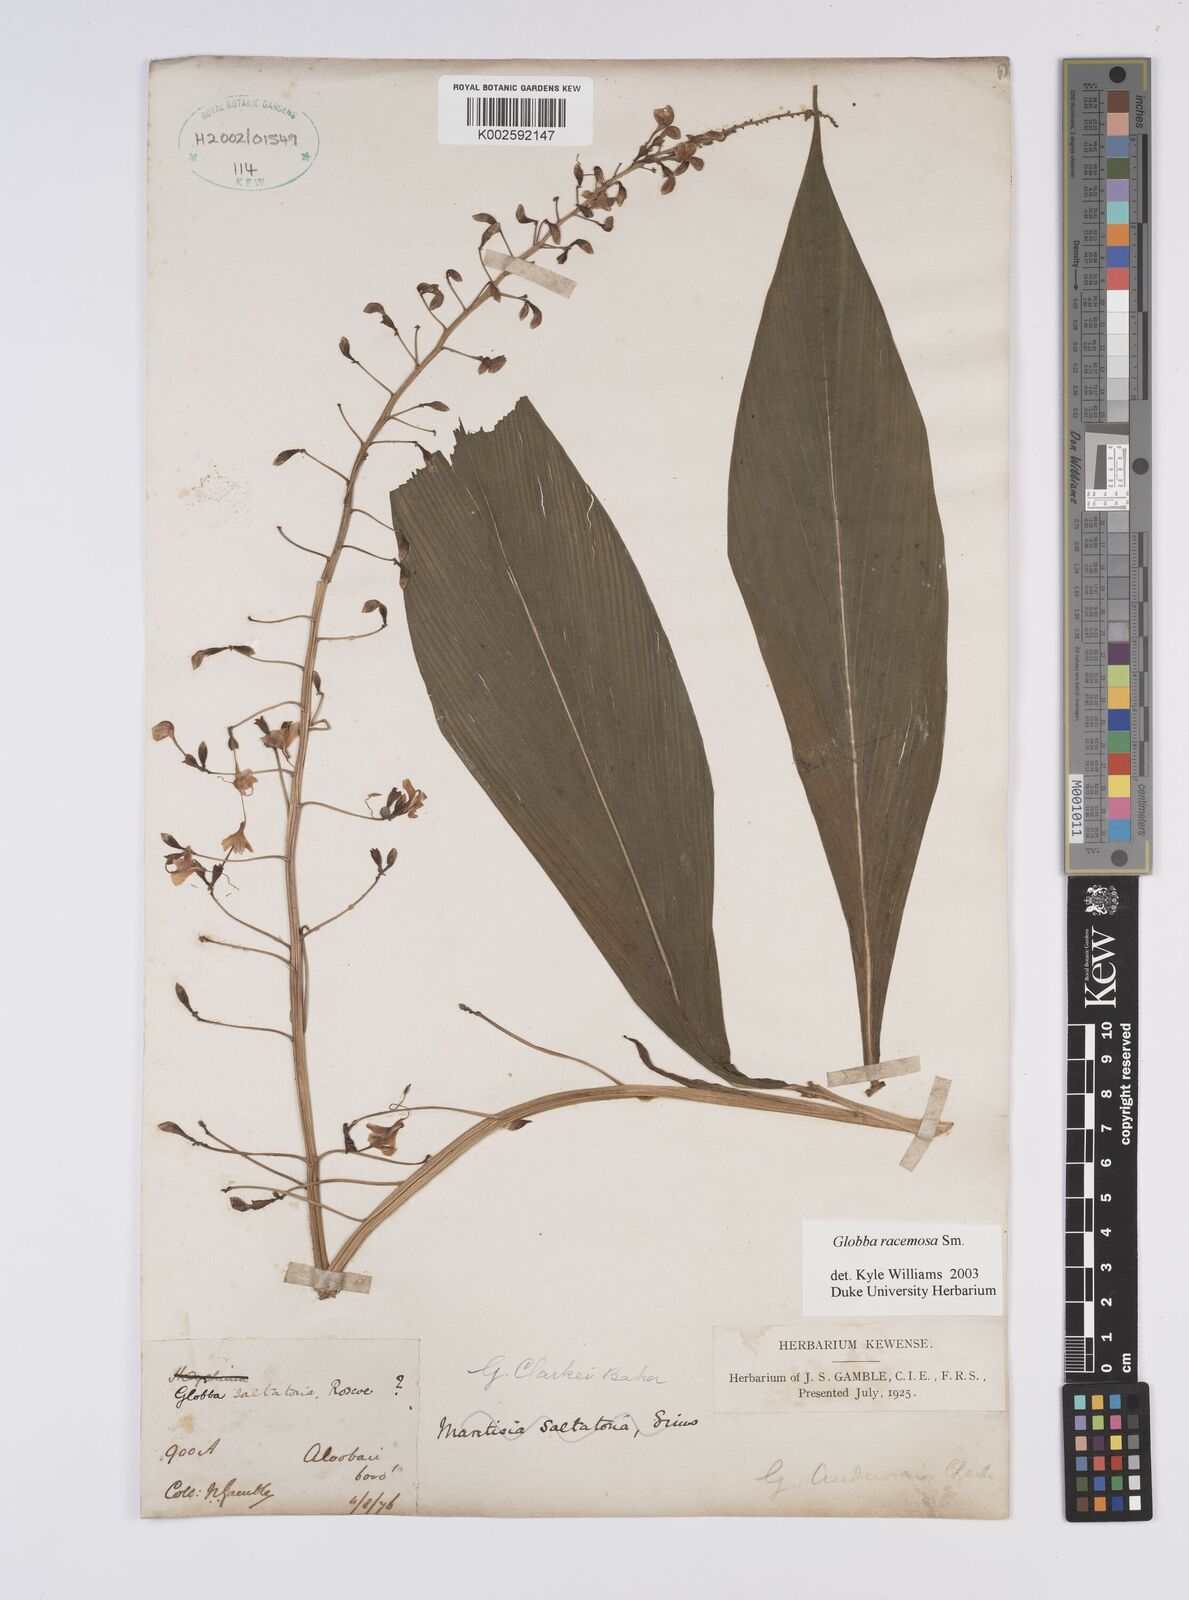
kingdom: Plantae
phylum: Tracheophyta
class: Liliopsida
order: Zingiberales
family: Zingiberaceae
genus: Globba
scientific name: Globba racemosa
